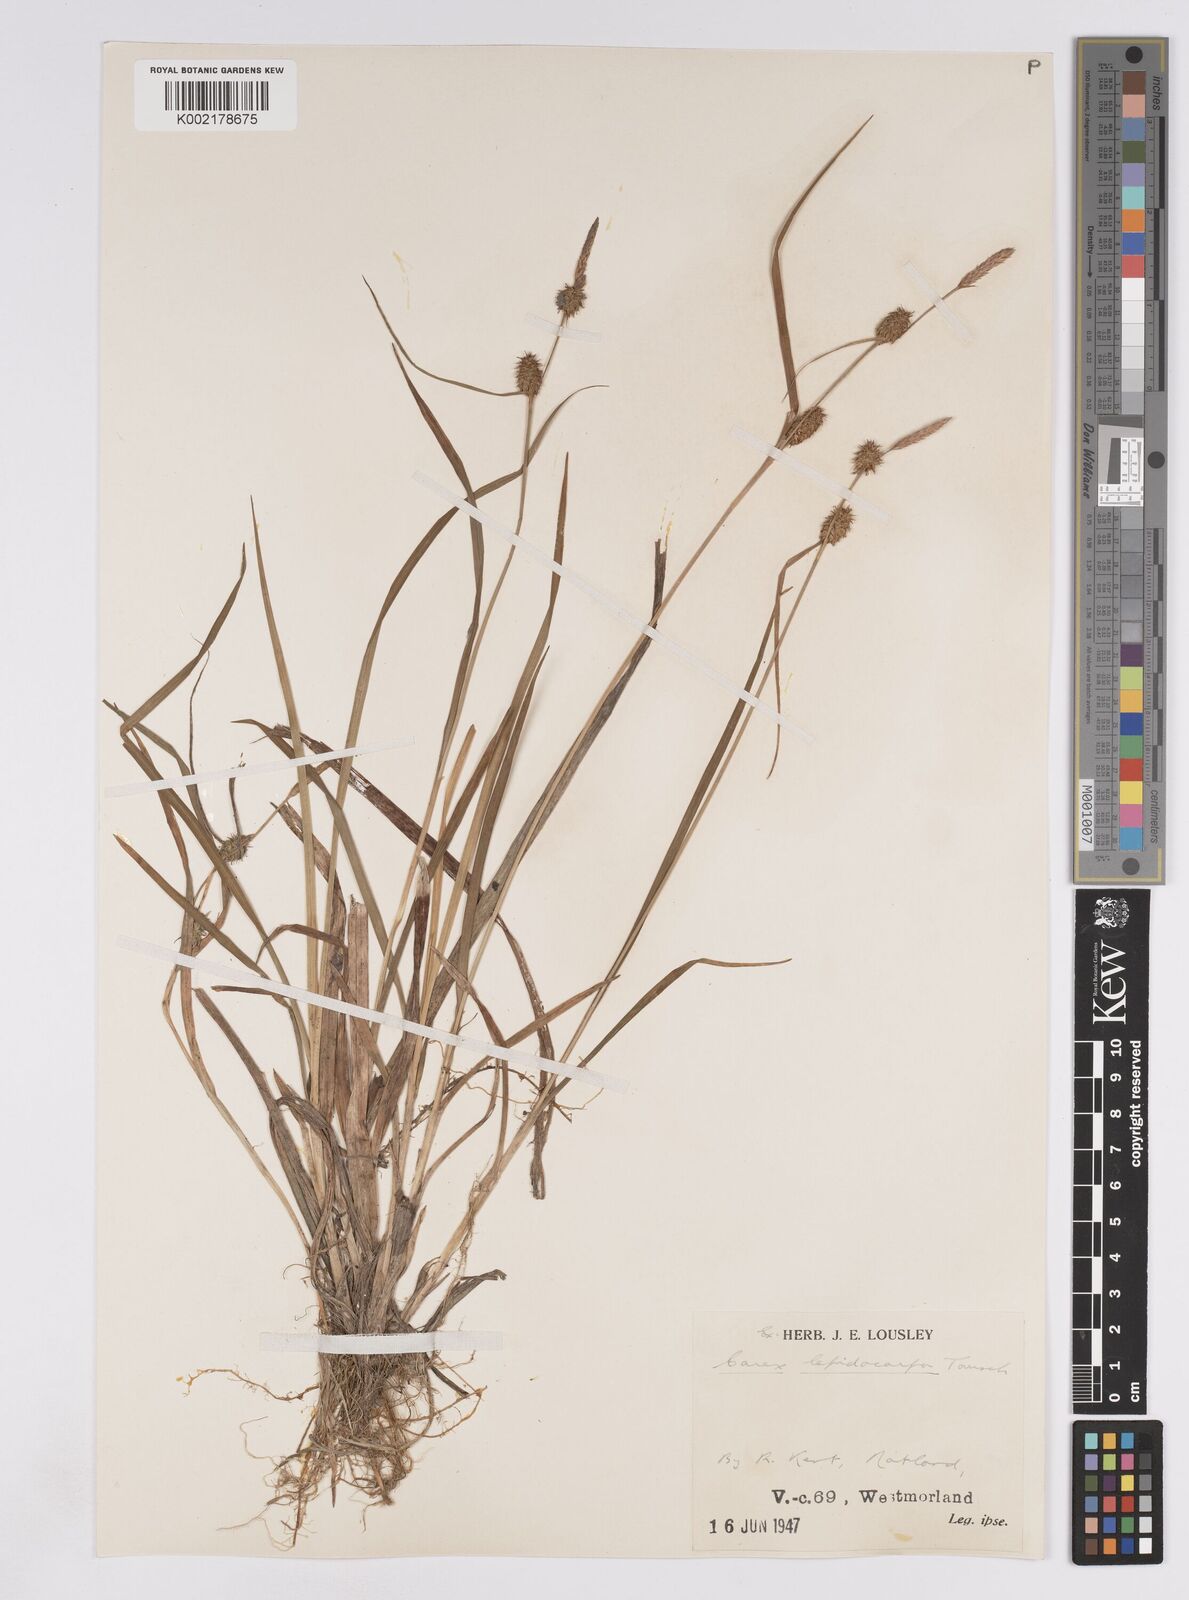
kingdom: Plantae
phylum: Tracheophyta
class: Liliopsida
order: Poales
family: Cyperaceae
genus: Carex
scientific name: Carex lepidocarpa
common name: Long-stalked yellow-sedge
